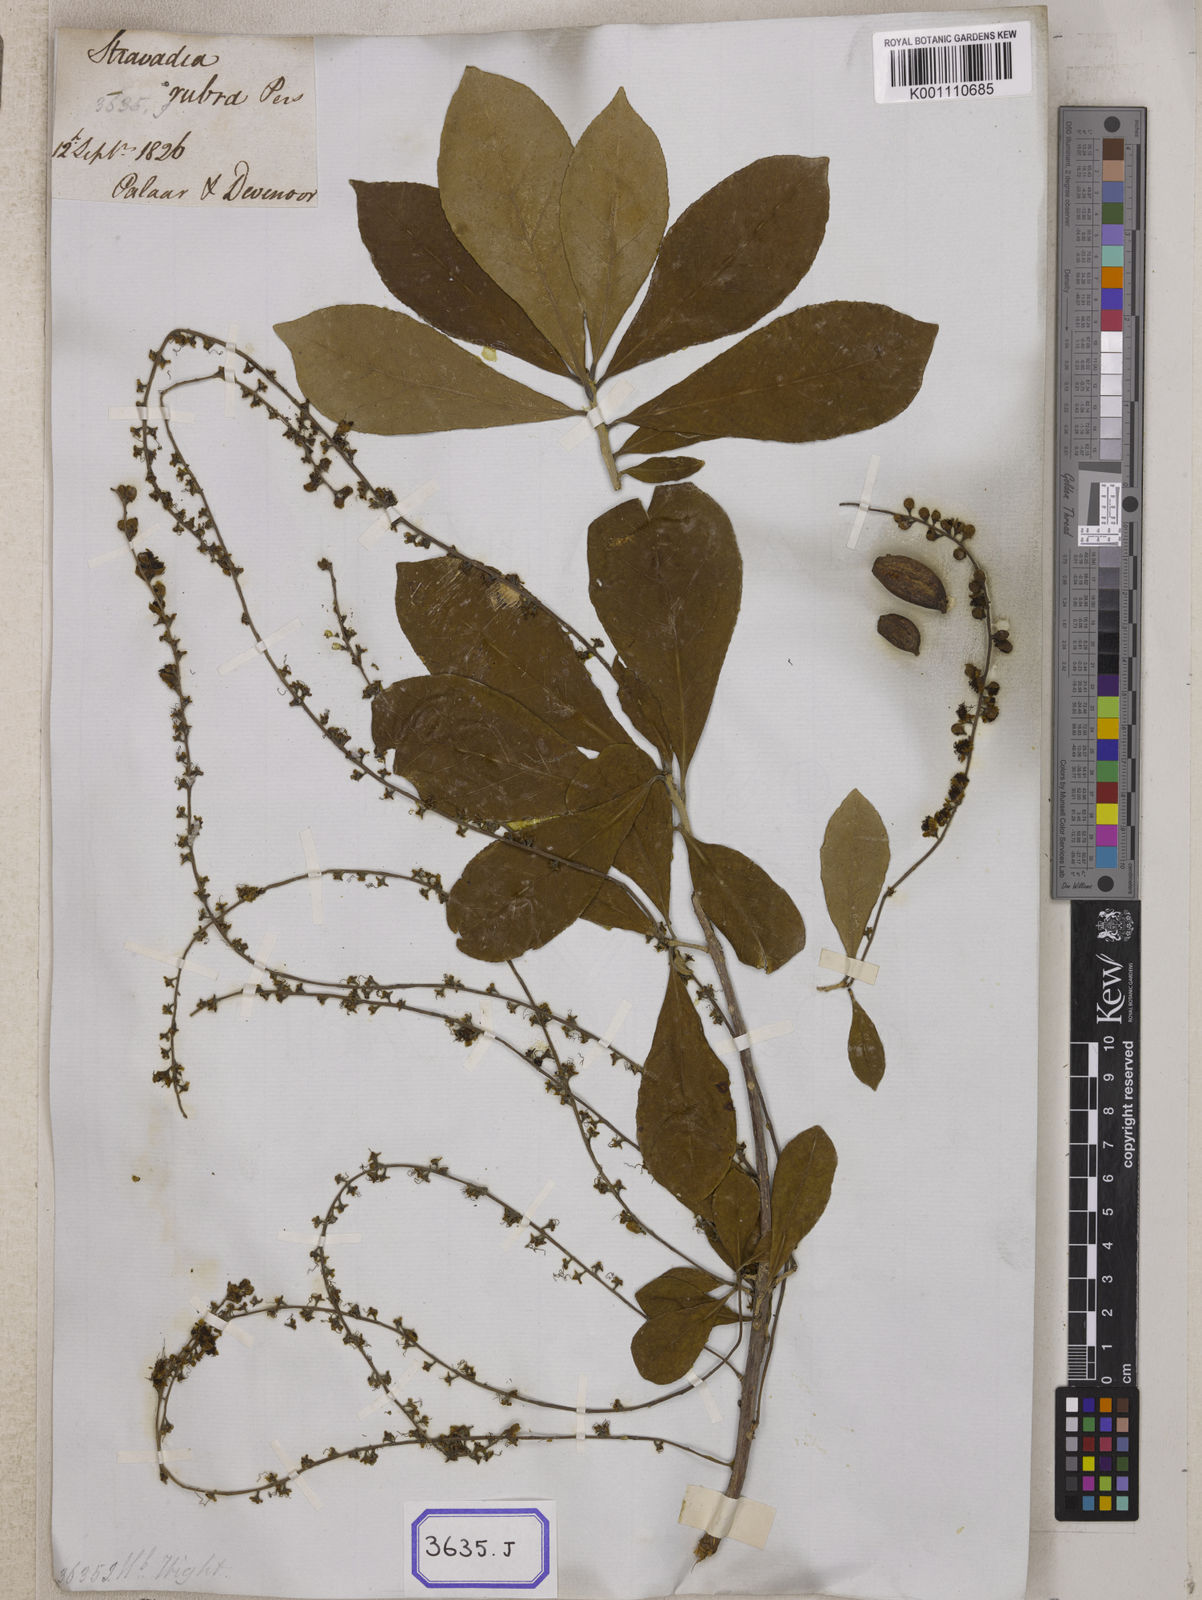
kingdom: Plantae
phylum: Tracheophyta
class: Magnoliopsida
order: Ericales
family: Lecythidaceae
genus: Barringtonia
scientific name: Barringtonia acutangula
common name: Freshwater mangrove
